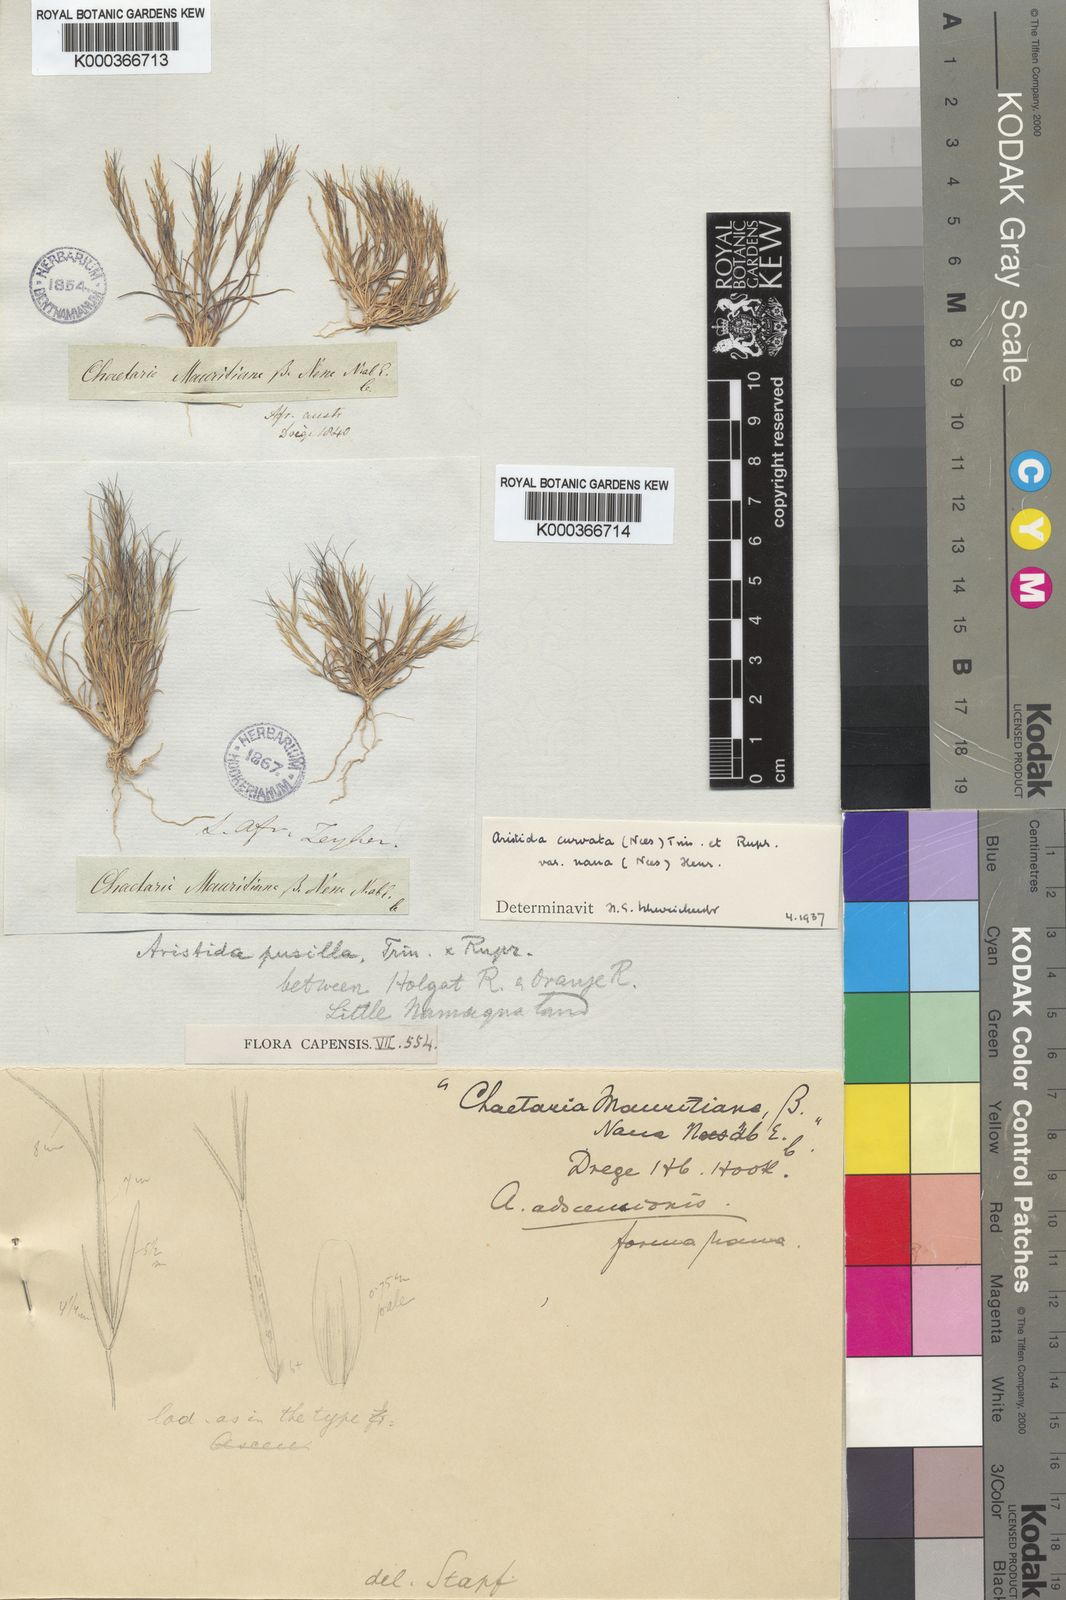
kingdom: Plantae
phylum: Tracheophyta
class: Liliopsida
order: Poales
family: Poaceae
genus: Aristida
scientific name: Aristida adscensionis
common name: Sixweeks threeawn
